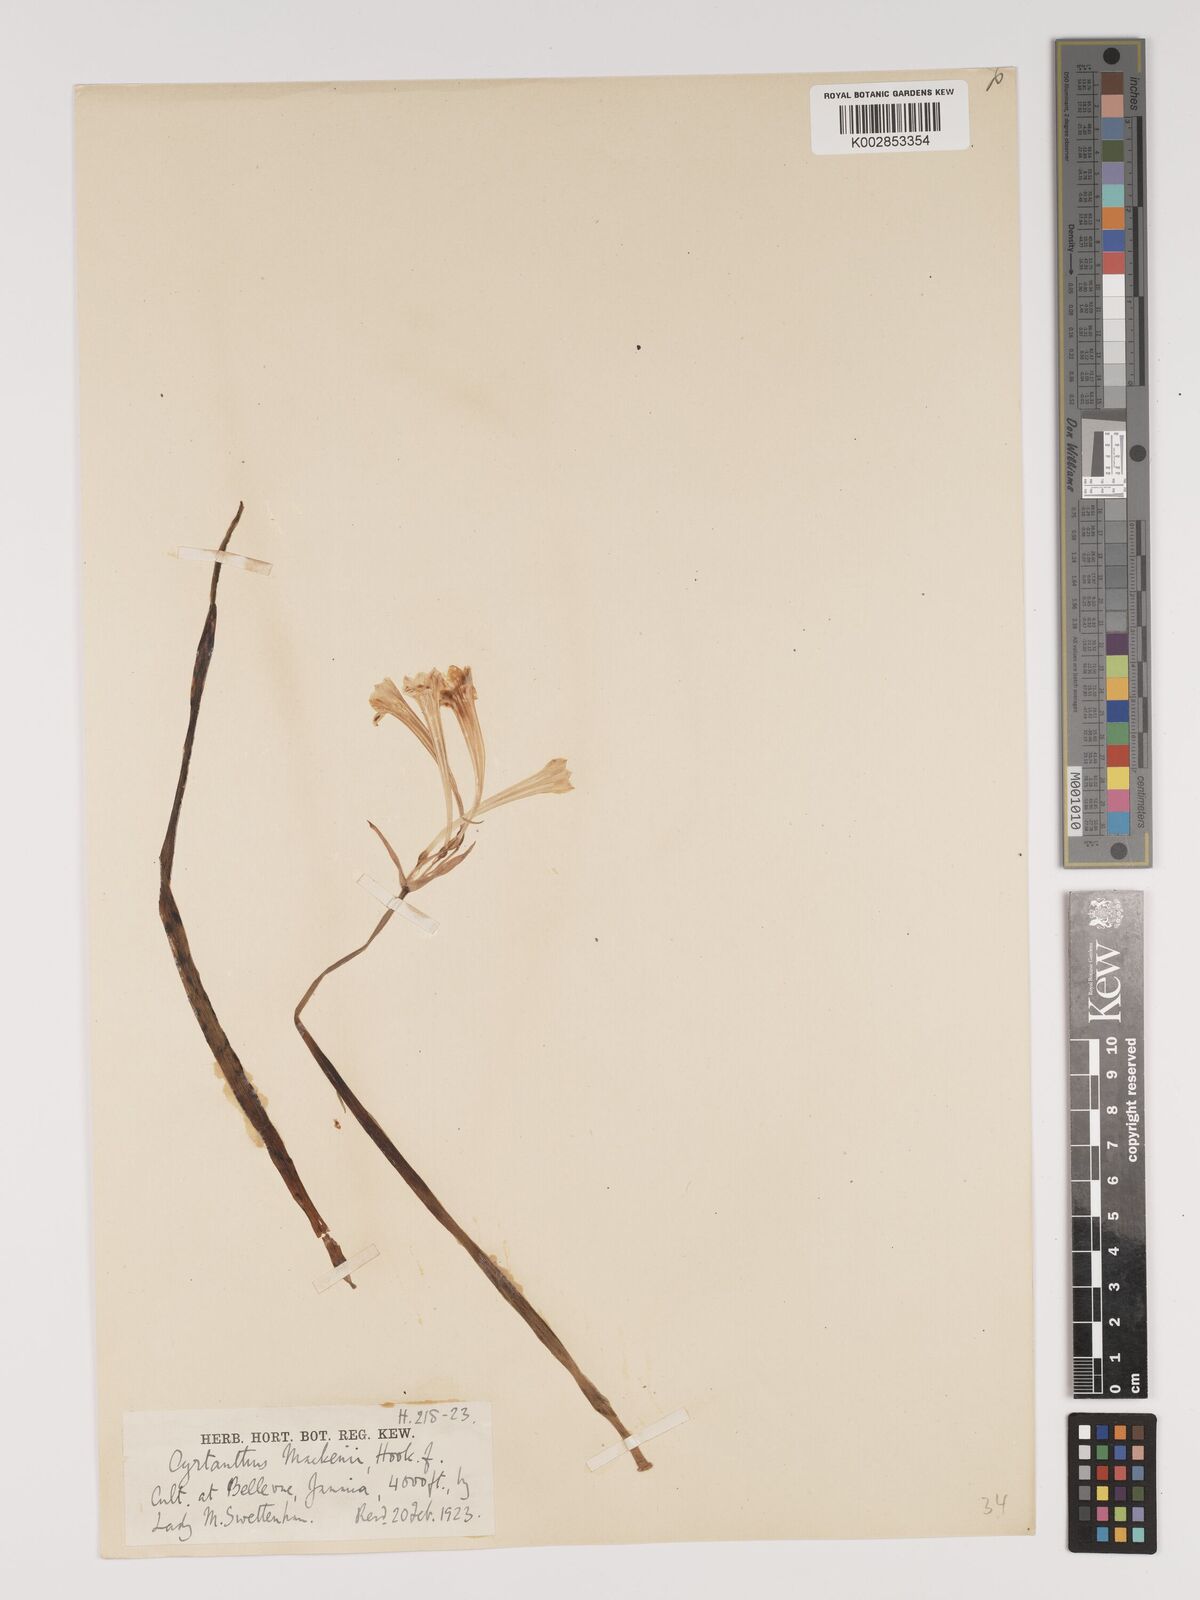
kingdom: Plantae
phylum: Tracheophyta
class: Liliopsida
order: Asparagales
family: Amaryllidaceae
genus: Cyrtanthus
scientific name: Cyrtanthus mackenii
